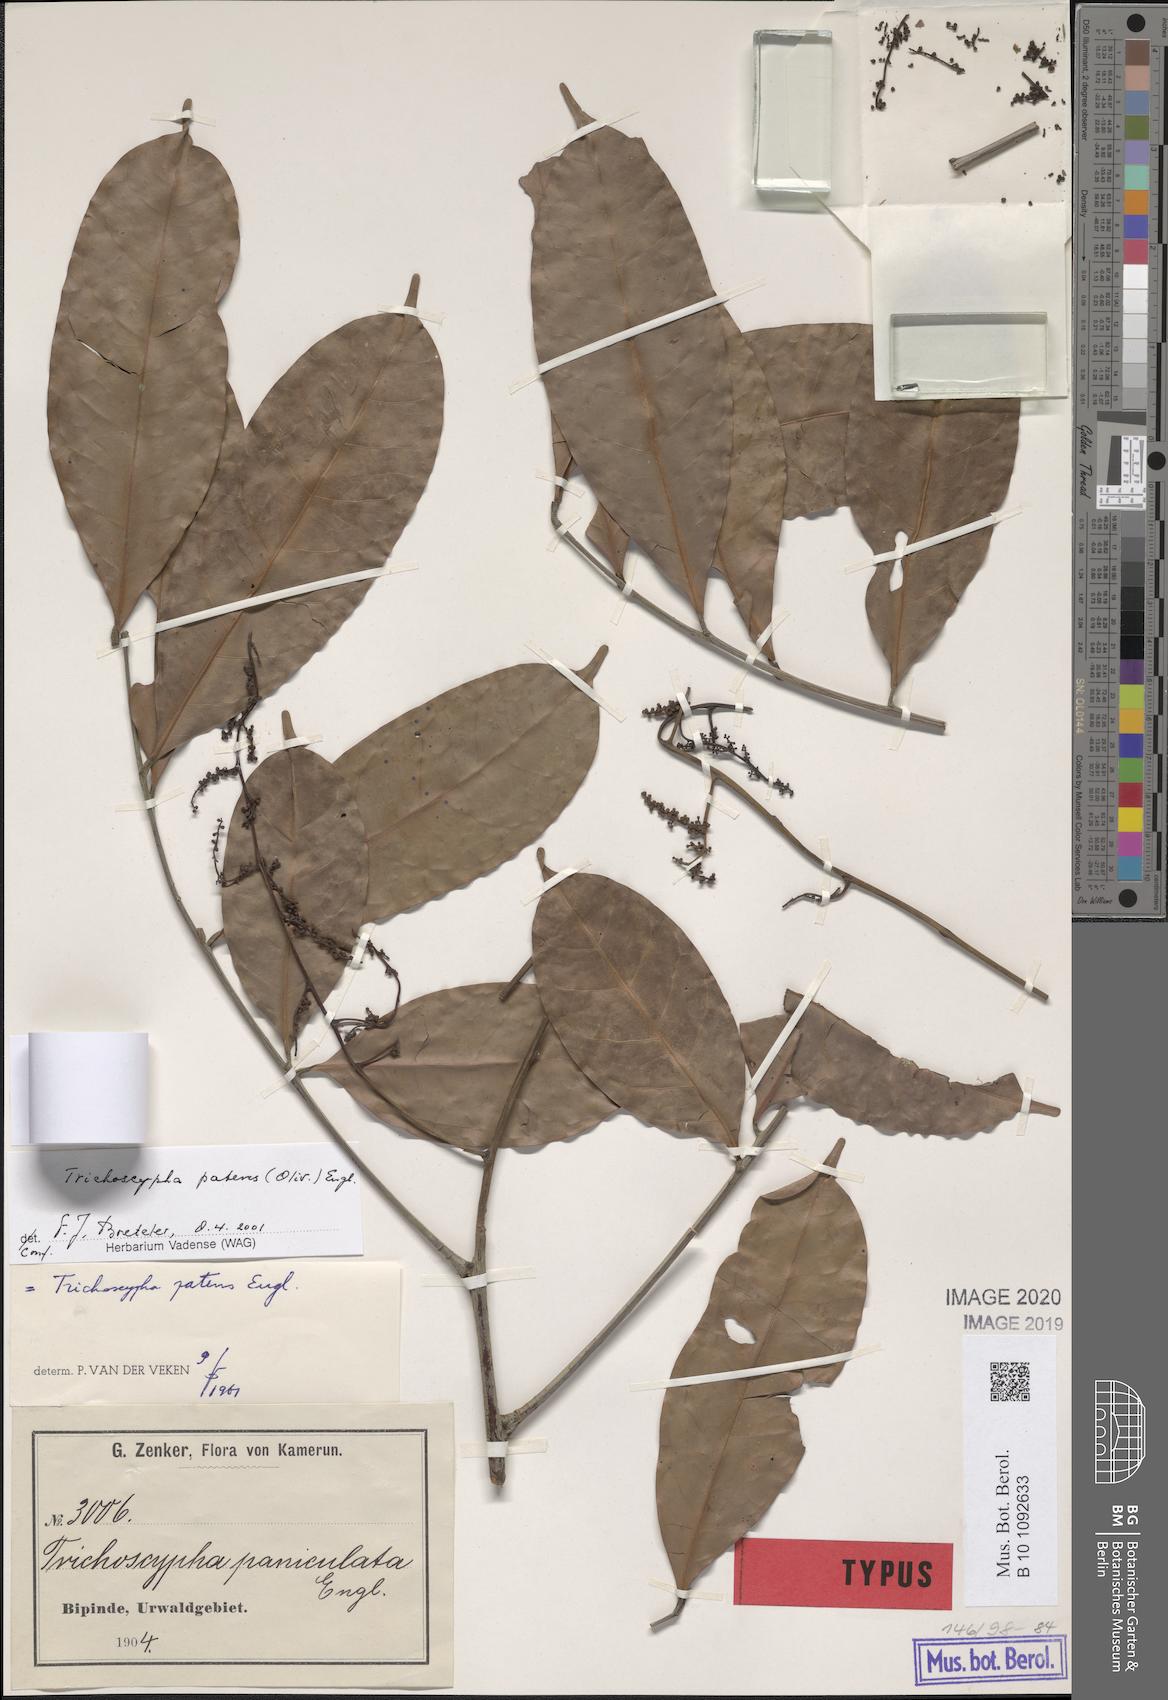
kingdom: Plantae
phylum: Tracheophyta
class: Magnoliopsida
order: Sapindales
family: Anacardiaceae
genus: Trichoscypha
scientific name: Trichoscypha patens
